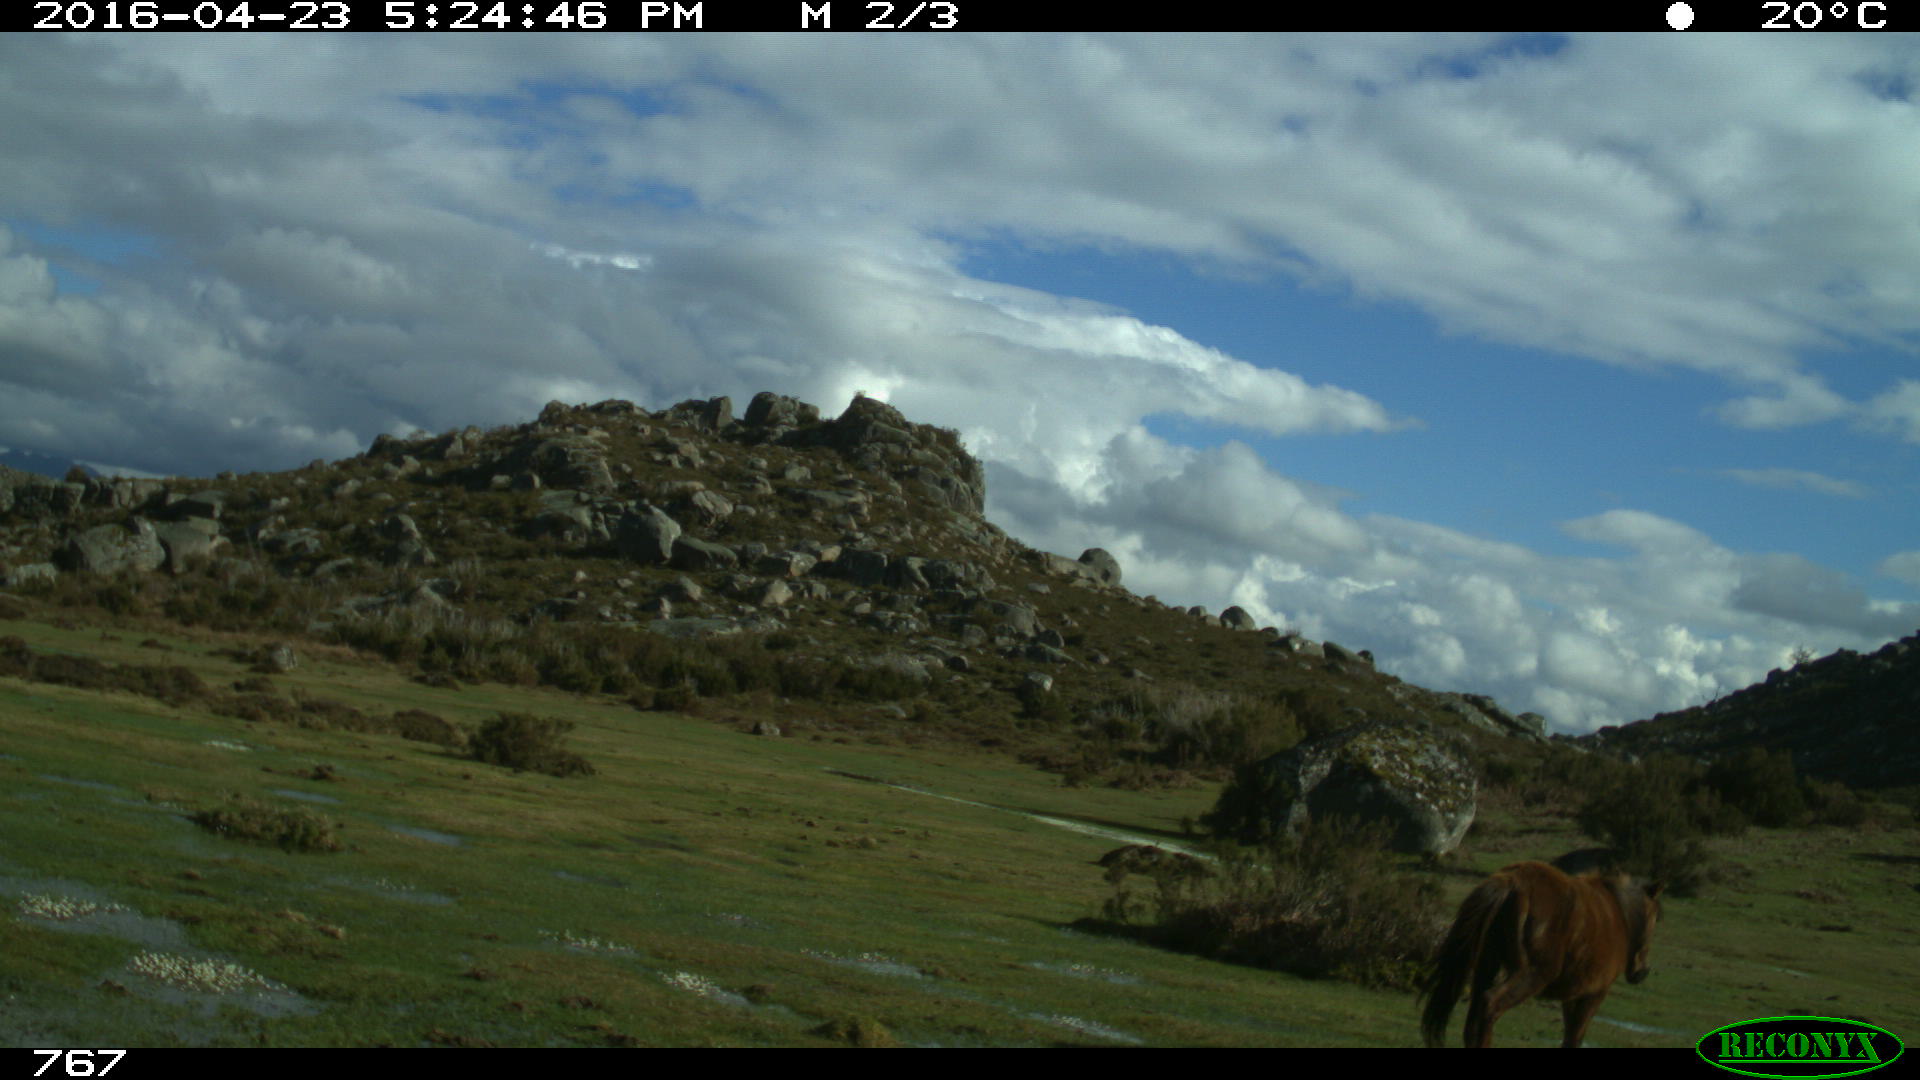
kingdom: Animalia
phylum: Chordata
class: Mammalia
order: Artiodactyla
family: Bovidae
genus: Bos
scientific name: Bos taurus
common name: Domesticated cattle
